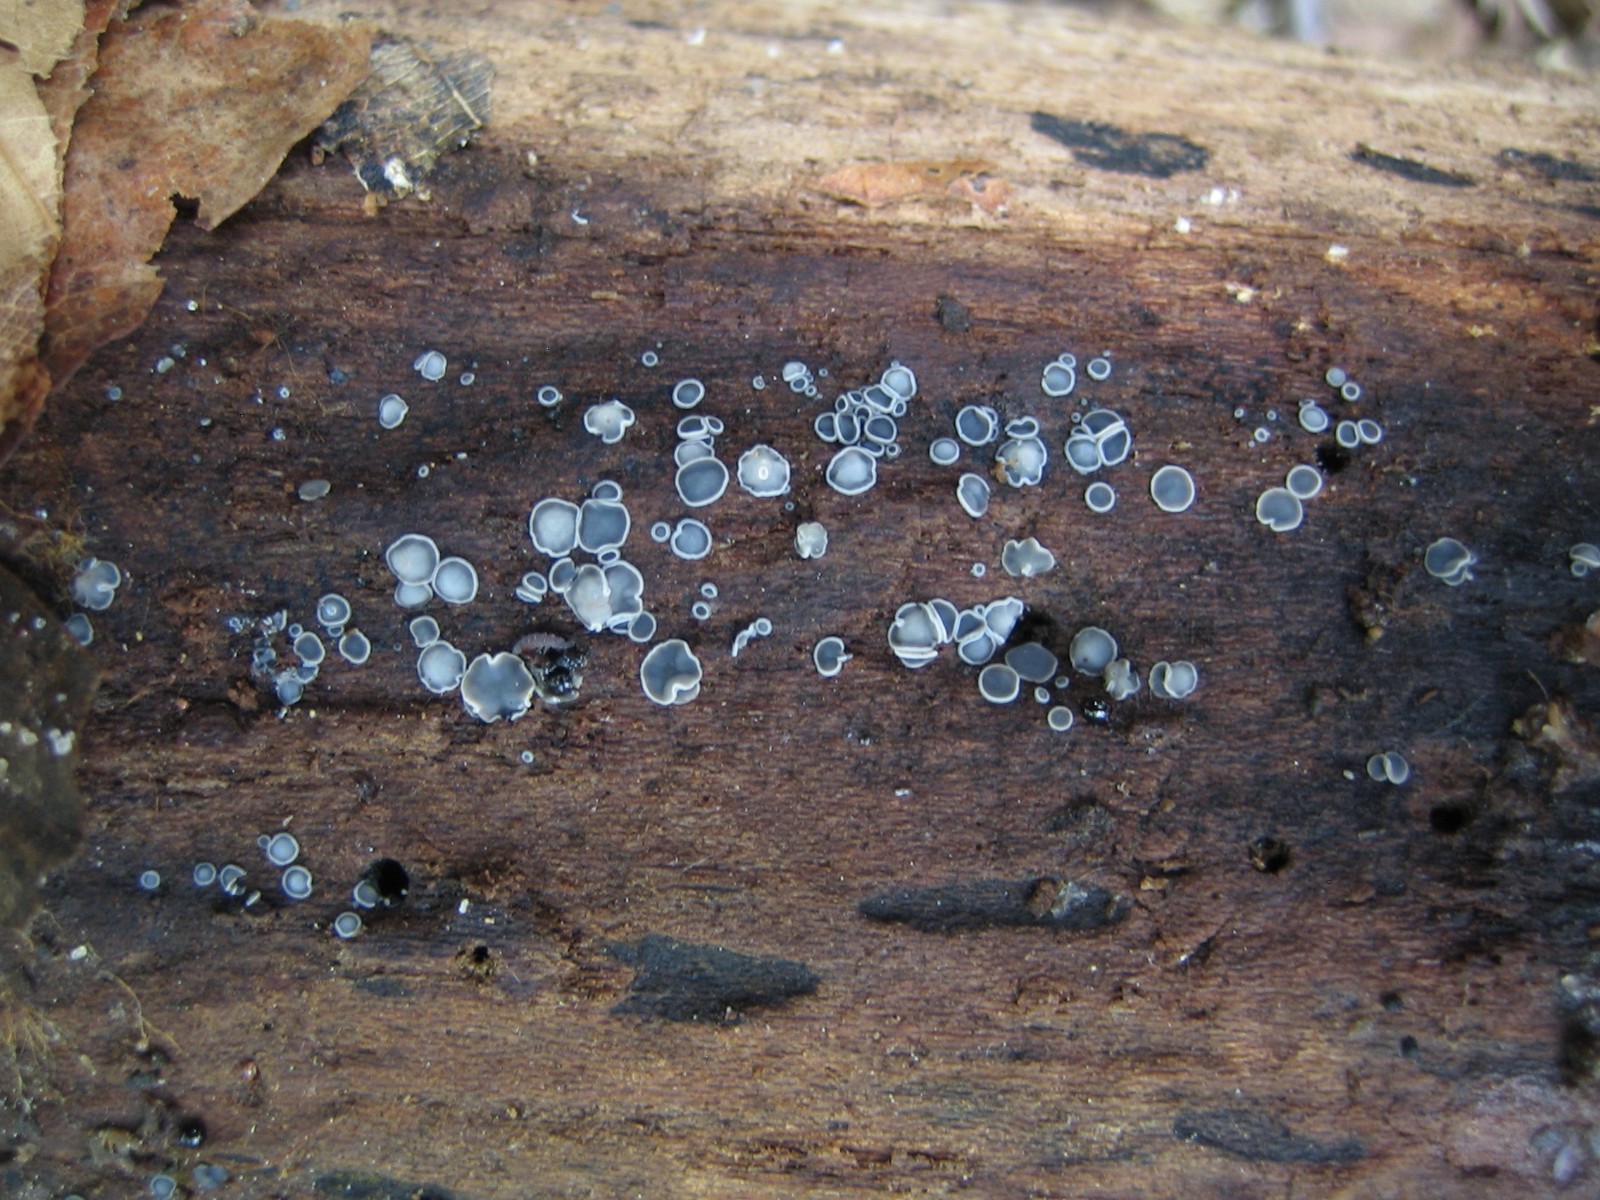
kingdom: Fungi
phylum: Ascomycota
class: Leotiomycetes
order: Helotiales
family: Mollisiaceae
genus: Mollisia
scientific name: Mollisia cinerea
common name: almindelig gråskive
